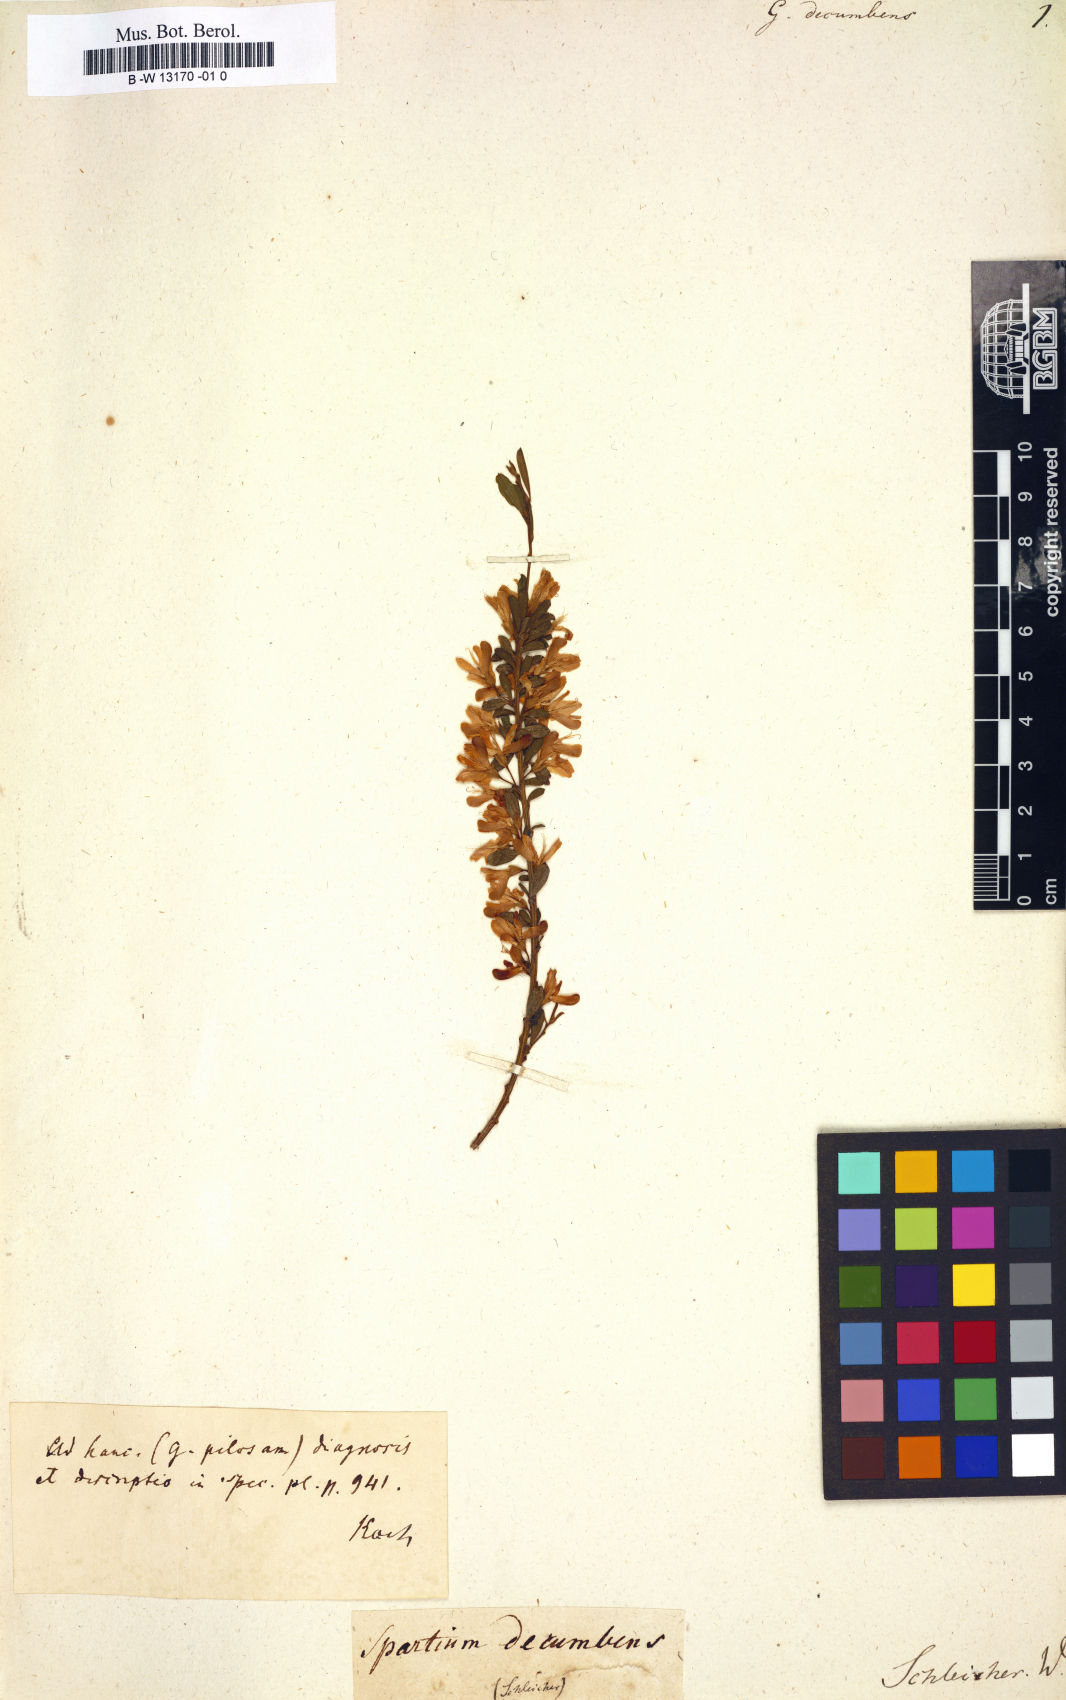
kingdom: Plantae
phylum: Tracheophyta
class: Magnoliopsida
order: Fabales
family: Fabaceae
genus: Cytisus
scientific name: Cytisus decumbens
